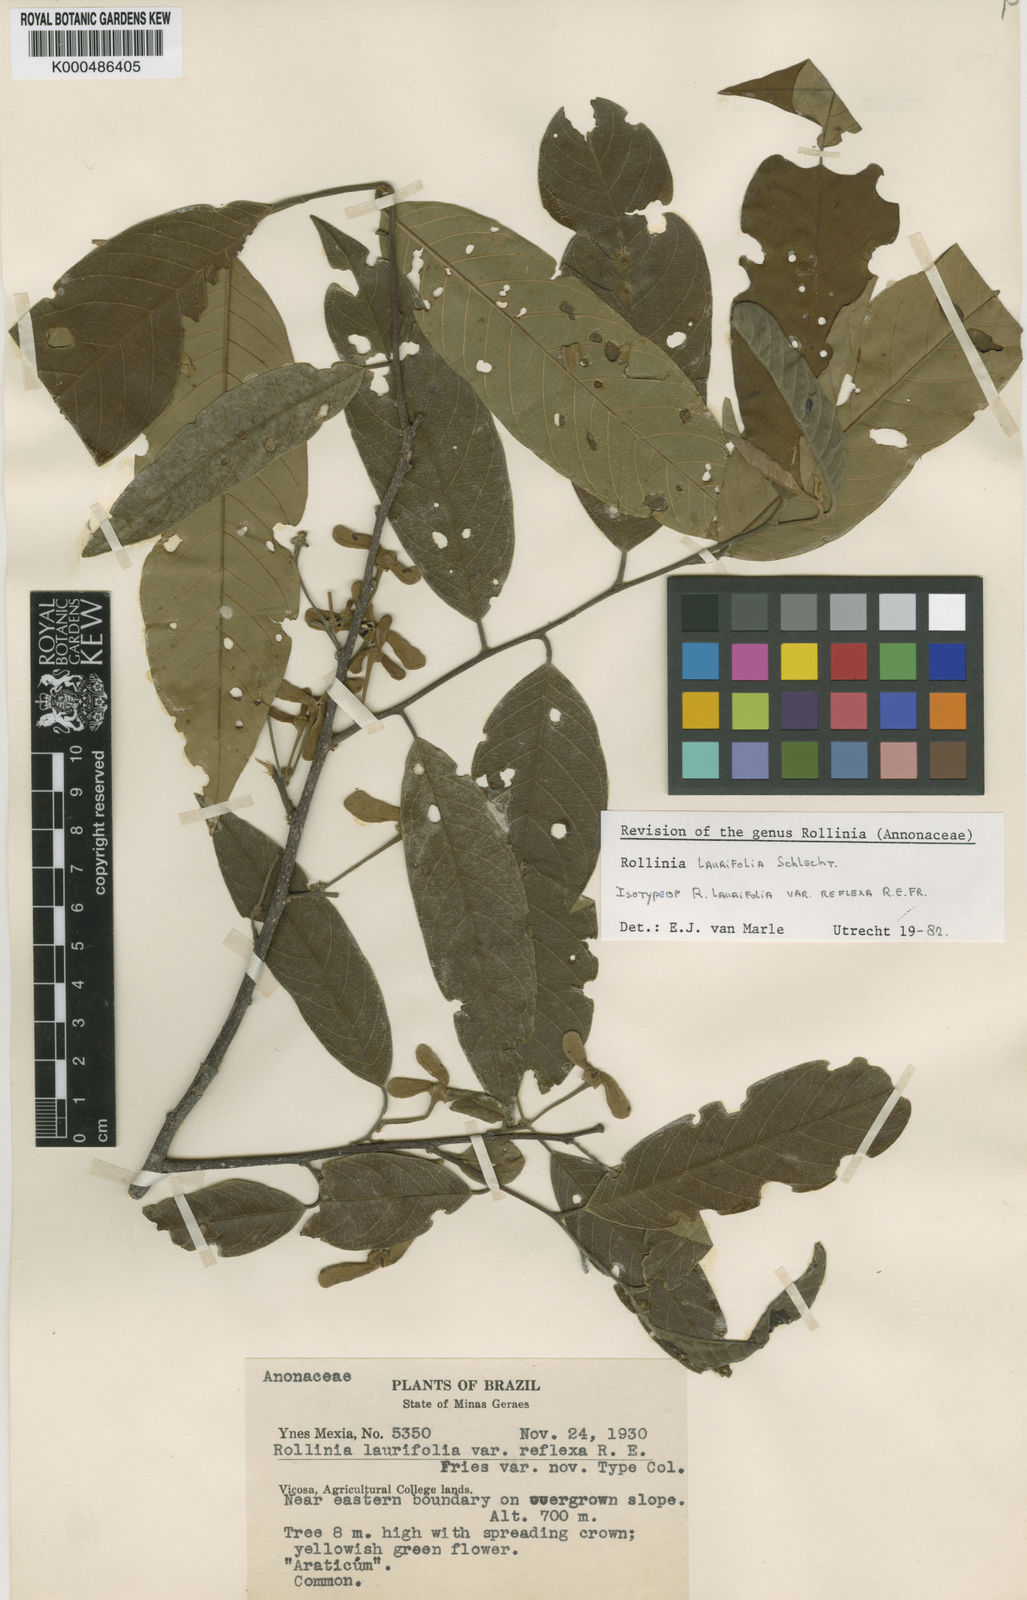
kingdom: Plantae
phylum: Tracheophyta
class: Magnoliopsida
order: Magnoliales
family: Annonaceae
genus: Annona
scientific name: Annona neolaurifolia
